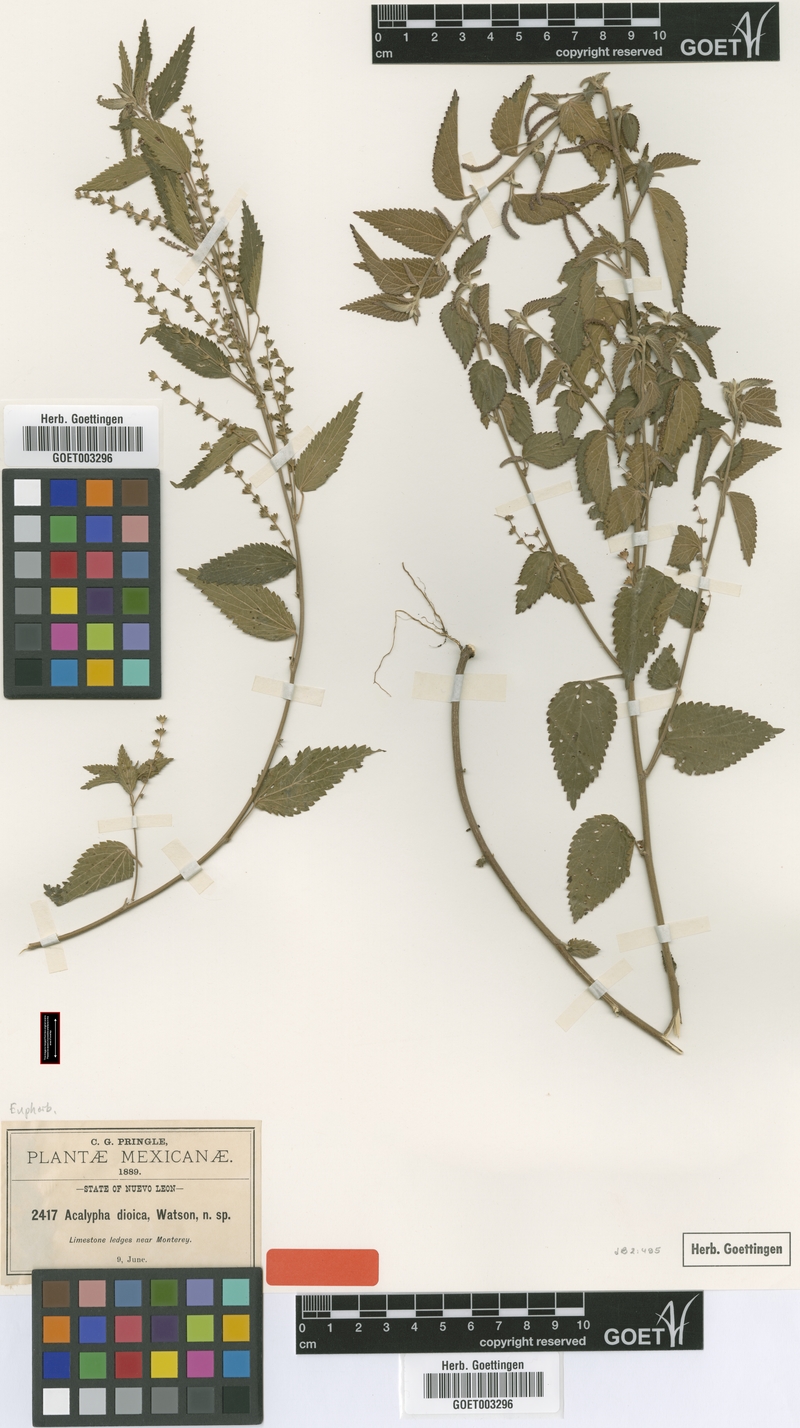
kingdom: Plantae
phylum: Tracheophyta
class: Magnoliopsida
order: Malpighiales
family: Euphorbiaceae
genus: Acalypha
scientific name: Acalypha dioica
